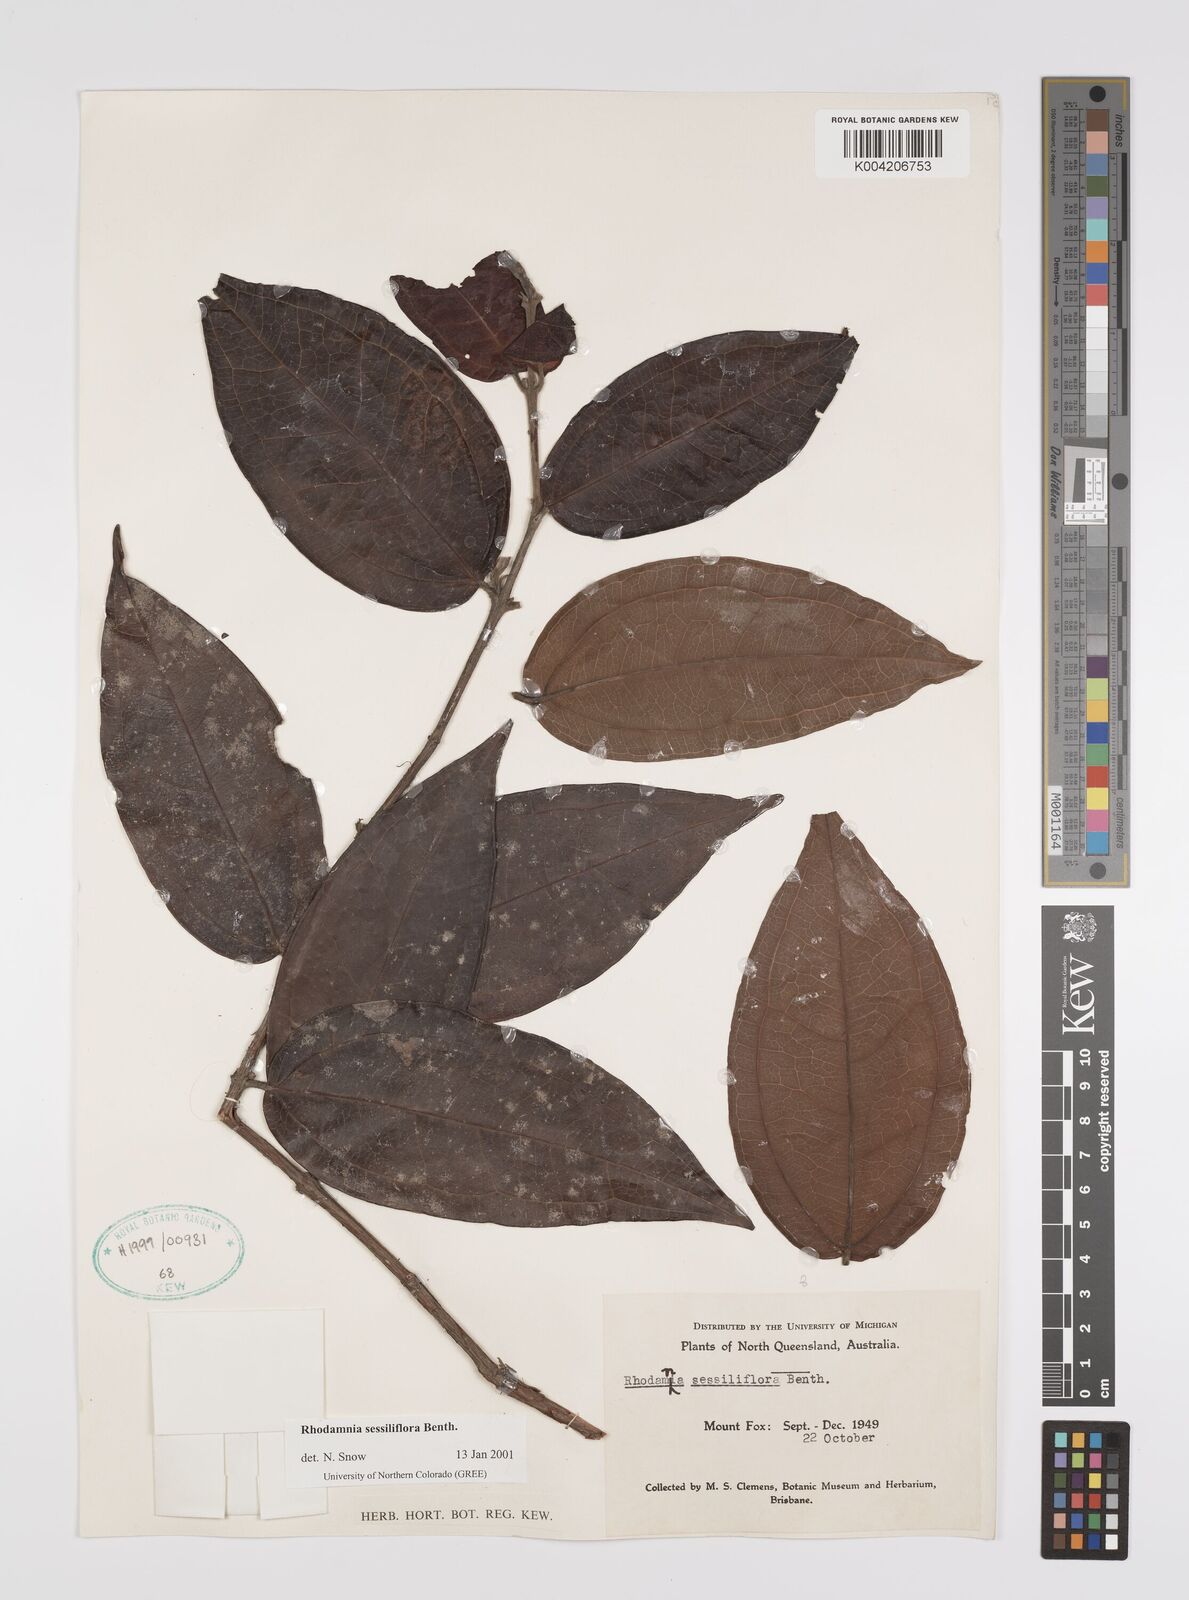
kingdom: Plantae
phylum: Tracheophyta
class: Magnoliopsida
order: Myrtales
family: Myrtaceae
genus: Rhodamnia
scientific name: Rhodamnia sessiliflora
